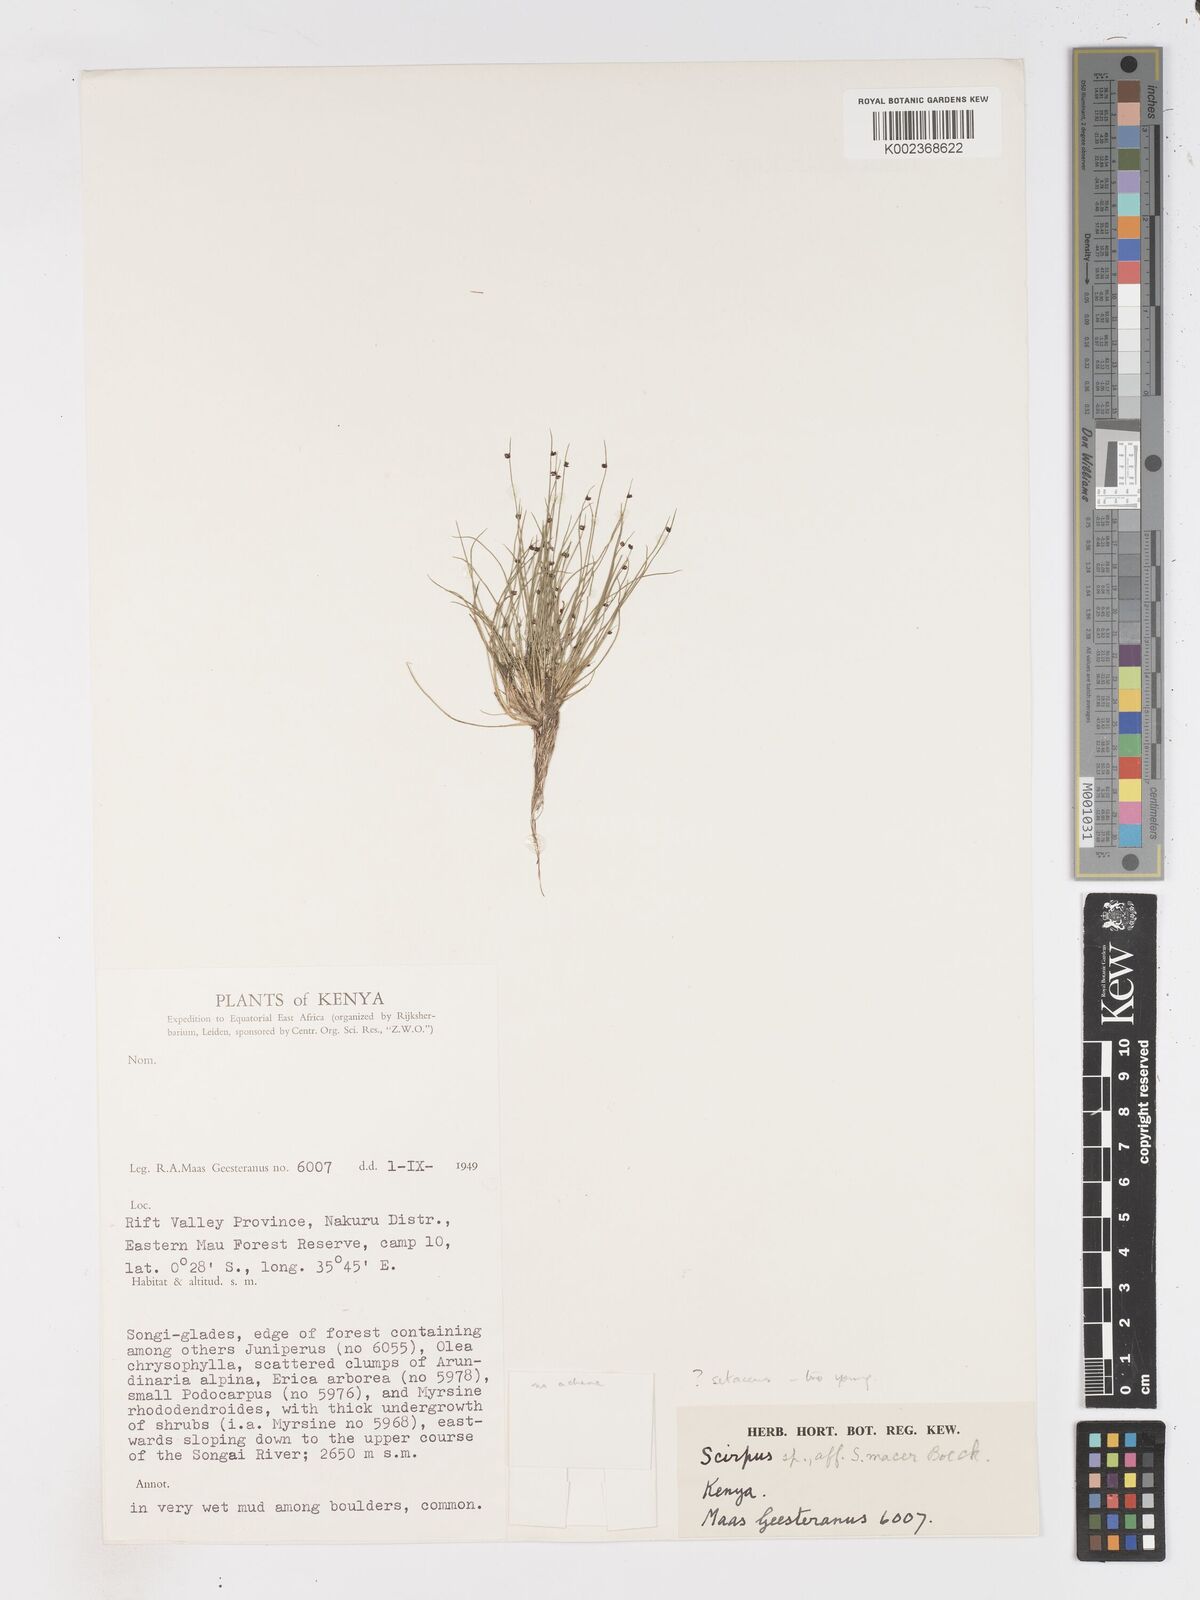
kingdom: Plantae
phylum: Tracheophyta
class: Liliopsida
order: Poales
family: Cyperaceae
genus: Isolepis
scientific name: Isolepis setacea
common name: Bristle club-rush
